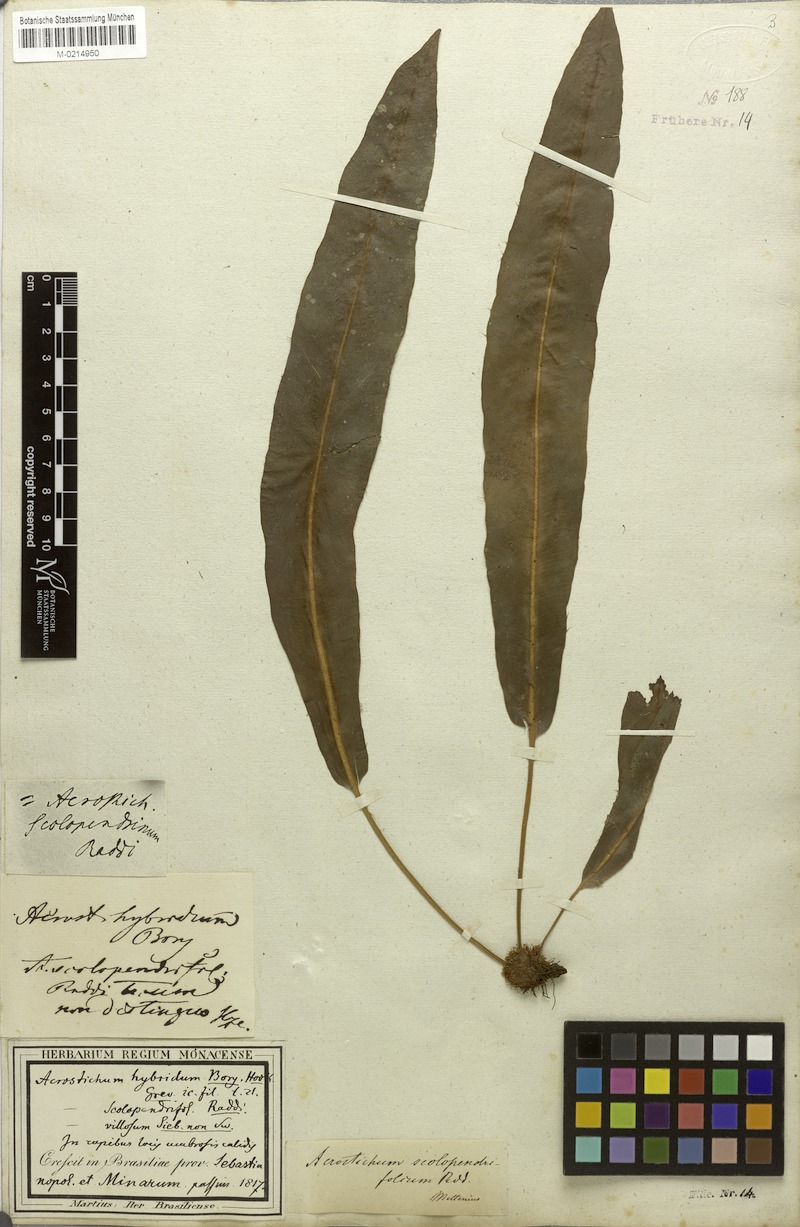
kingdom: Plantae
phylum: Tracheophyta
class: Polypodiopsida
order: Polypodiales
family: Dryopteridaceae
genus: Elaphoglossum
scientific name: Elaphoglossum scolopendrifolium
